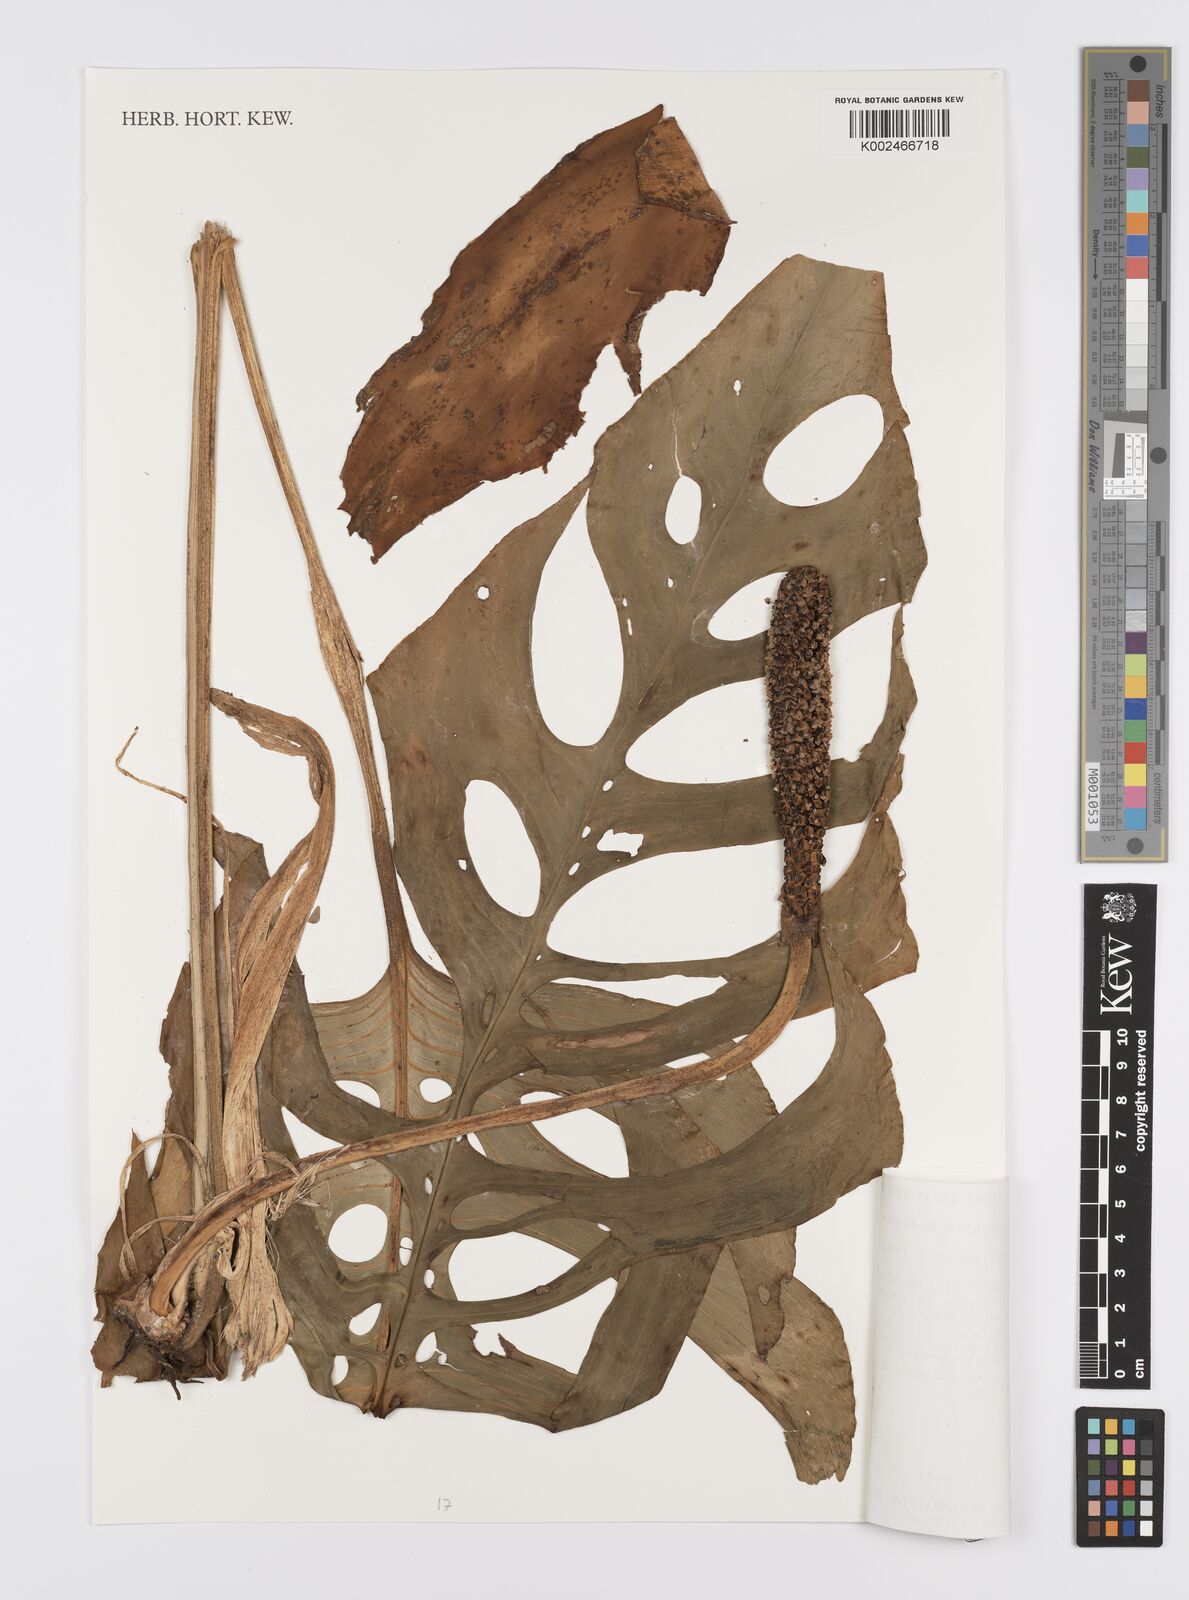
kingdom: Plantae
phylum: Tracheophyta
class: Liliopsida
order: Alismatales
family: Araceae
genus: Monstera
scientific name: Monstera oreophila
